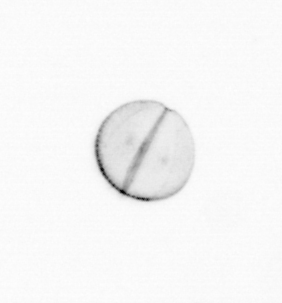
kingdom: Chromista
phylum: Ochrophyta
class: Bacillariophyceae
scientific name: Bacillariophyceae
